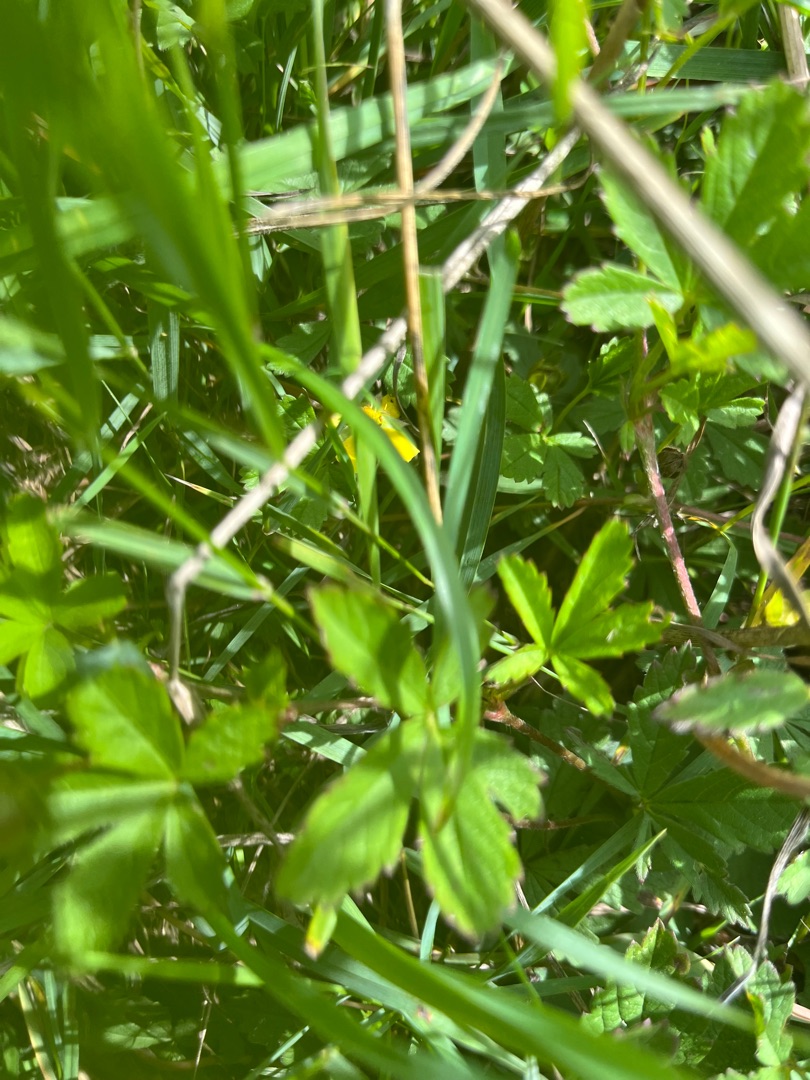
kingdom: Plantae
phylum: Tracheophyta
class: Magnoliopsida
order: Rosales
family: Rosaceae
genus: Potentilla
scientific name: Potentilla reptans
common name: Krybende potentil
